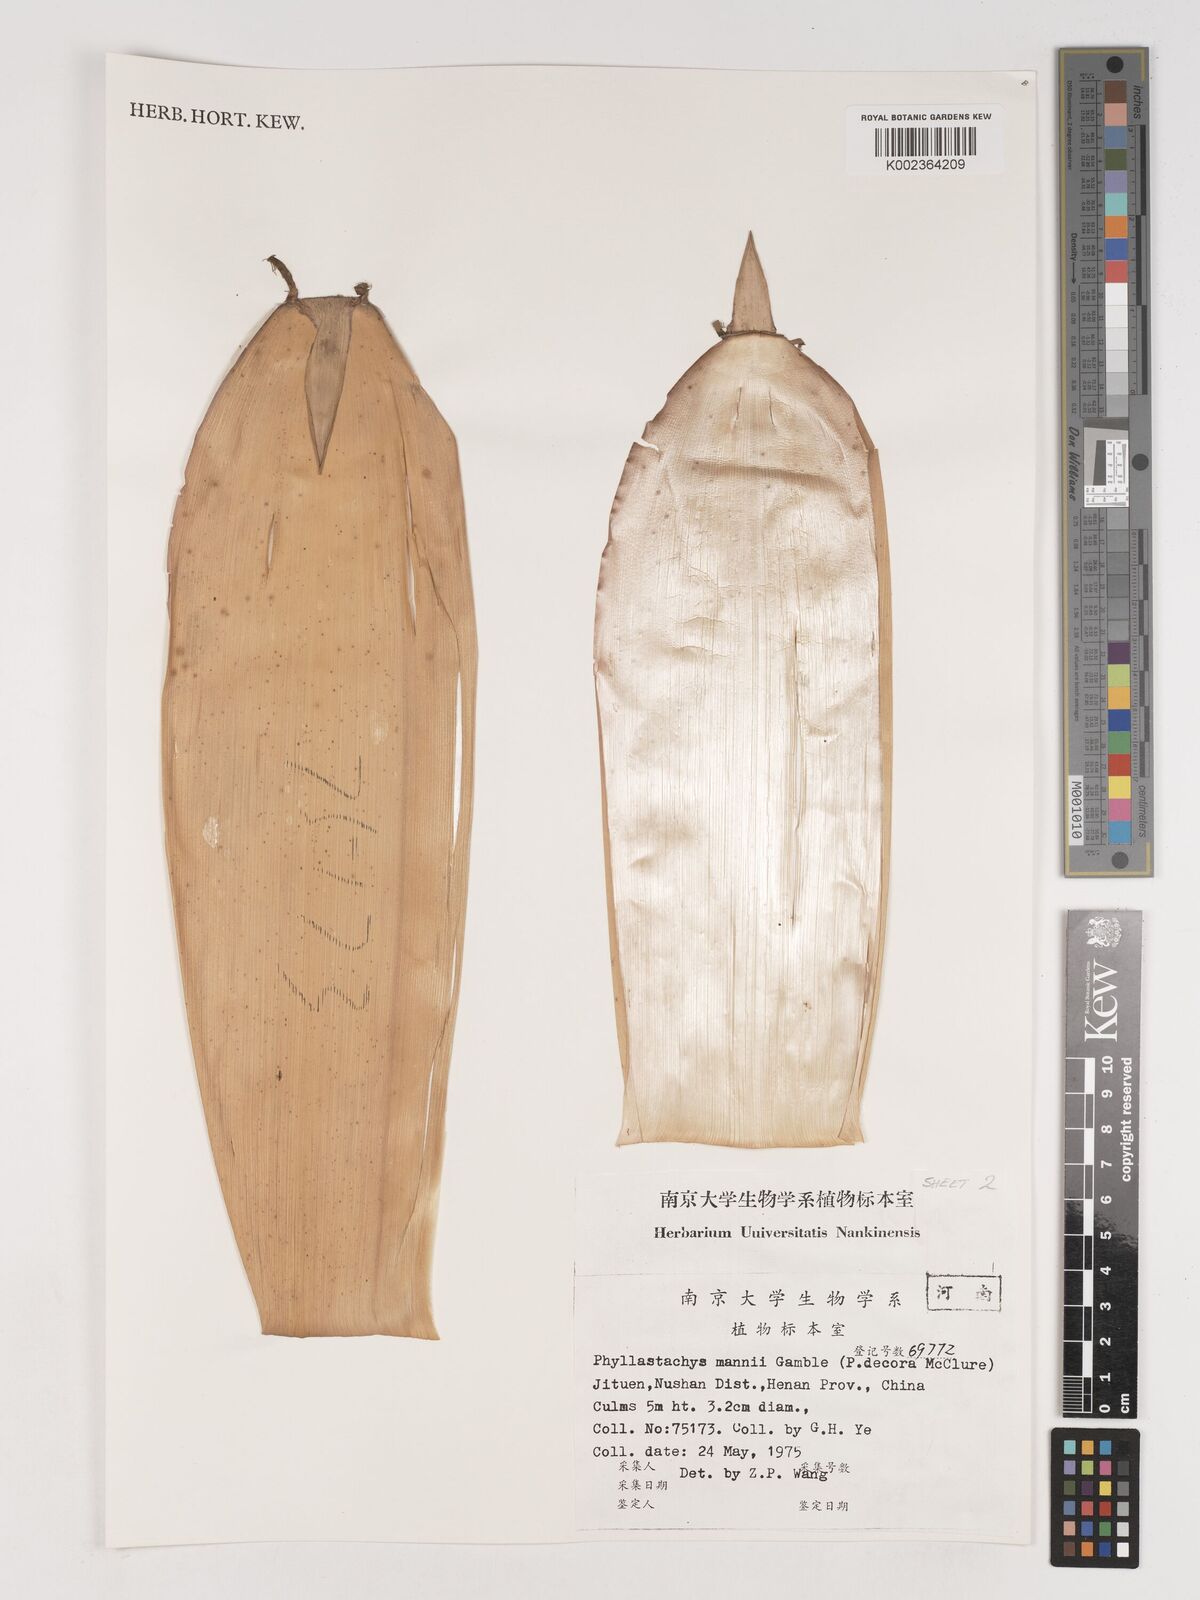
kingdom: Plantae
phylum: Tracheophyta
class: Liliopsida
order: Poales
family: Poaceae
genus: Phyllostachys
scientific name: Phyllostachys makinoi
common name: Makino bamboo
